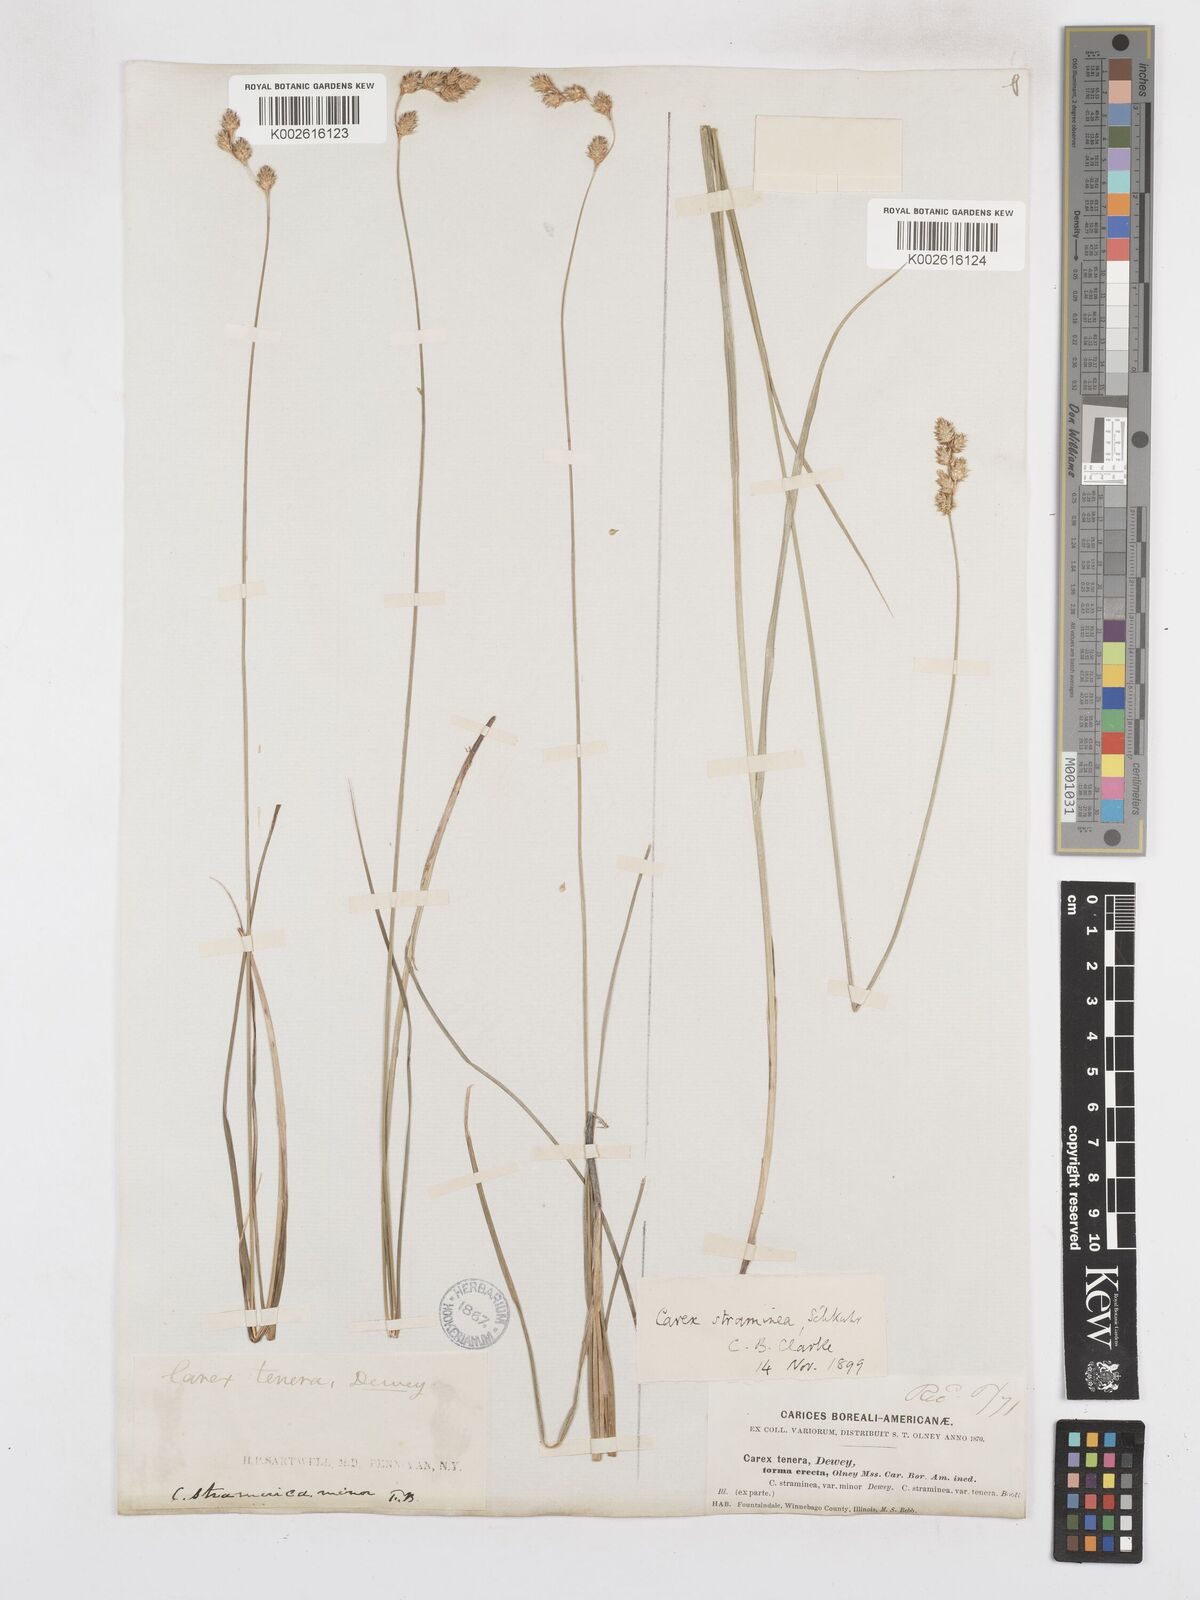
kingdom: Plantae
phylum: Tracheophyta
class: Liliopsida
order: Poales
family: Cyperaceae
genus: Carex
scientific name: Carex brevior
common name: Brevior sedge
